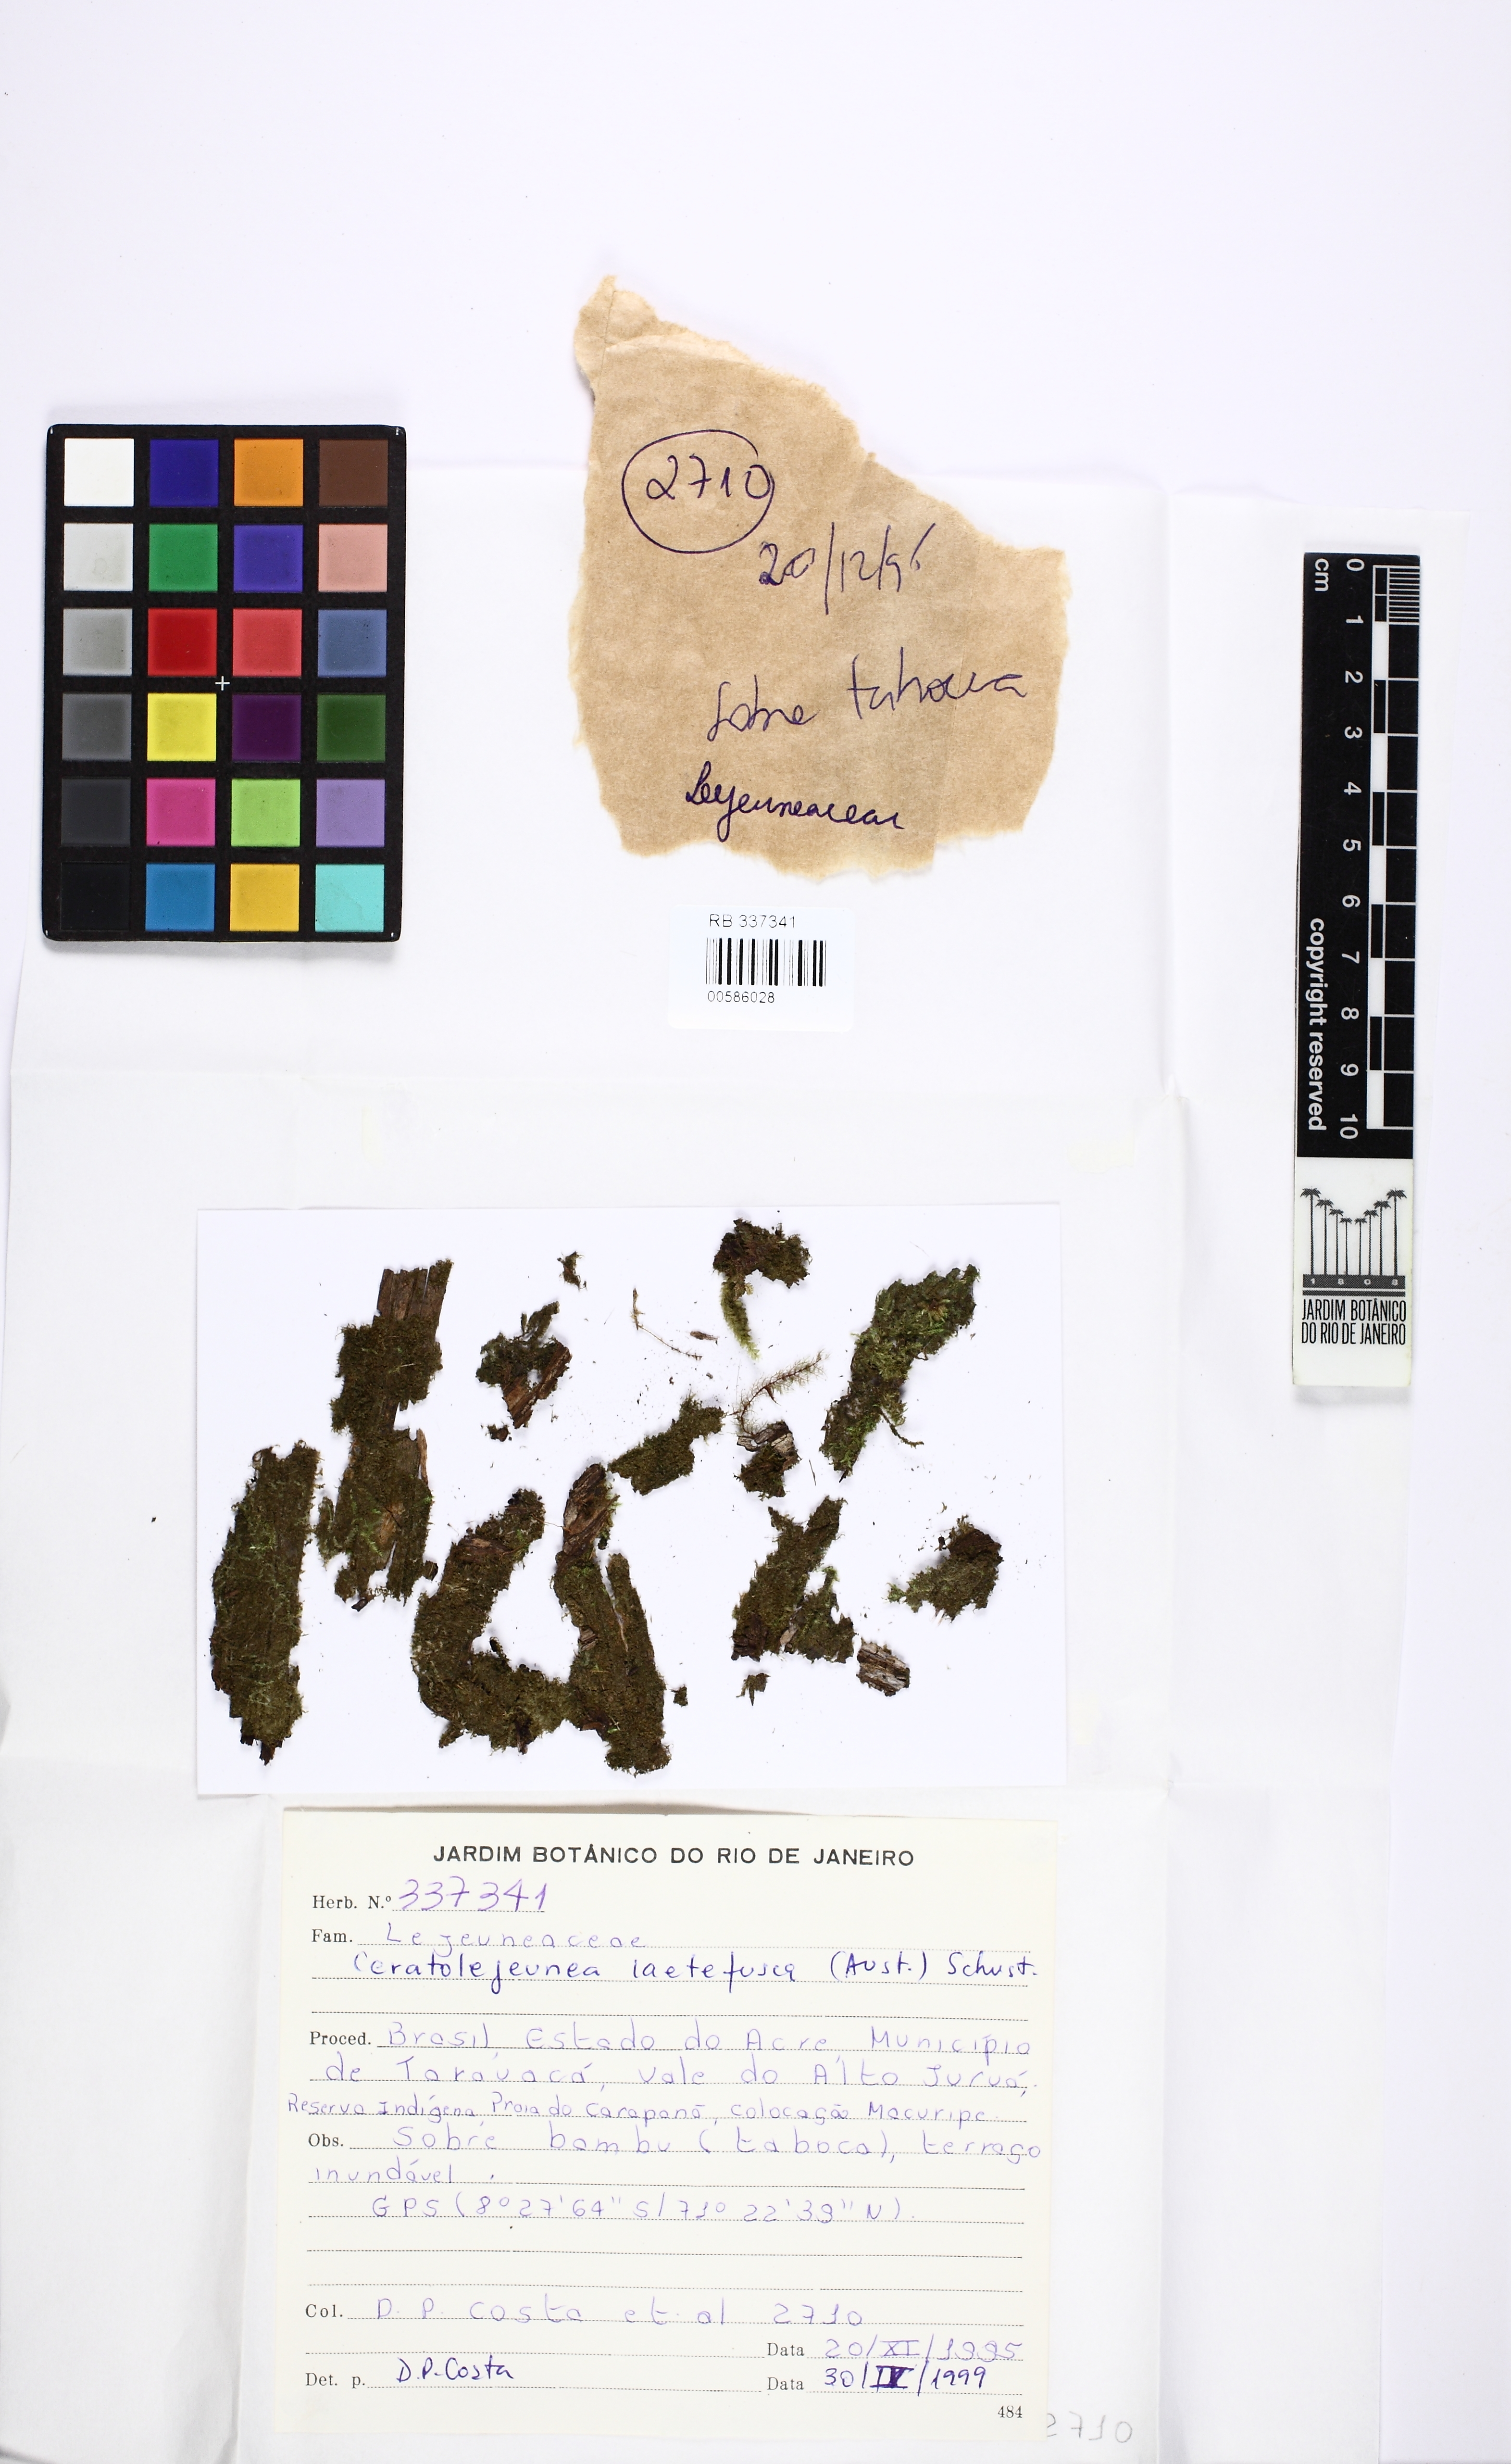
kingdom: Plantae
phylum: Marchantiophyta
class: Jungermanniopsida
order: Porellales
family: Lejeuneaceae
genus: Ceratolejeunea
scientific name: Ceratolejeunea laetefusca
